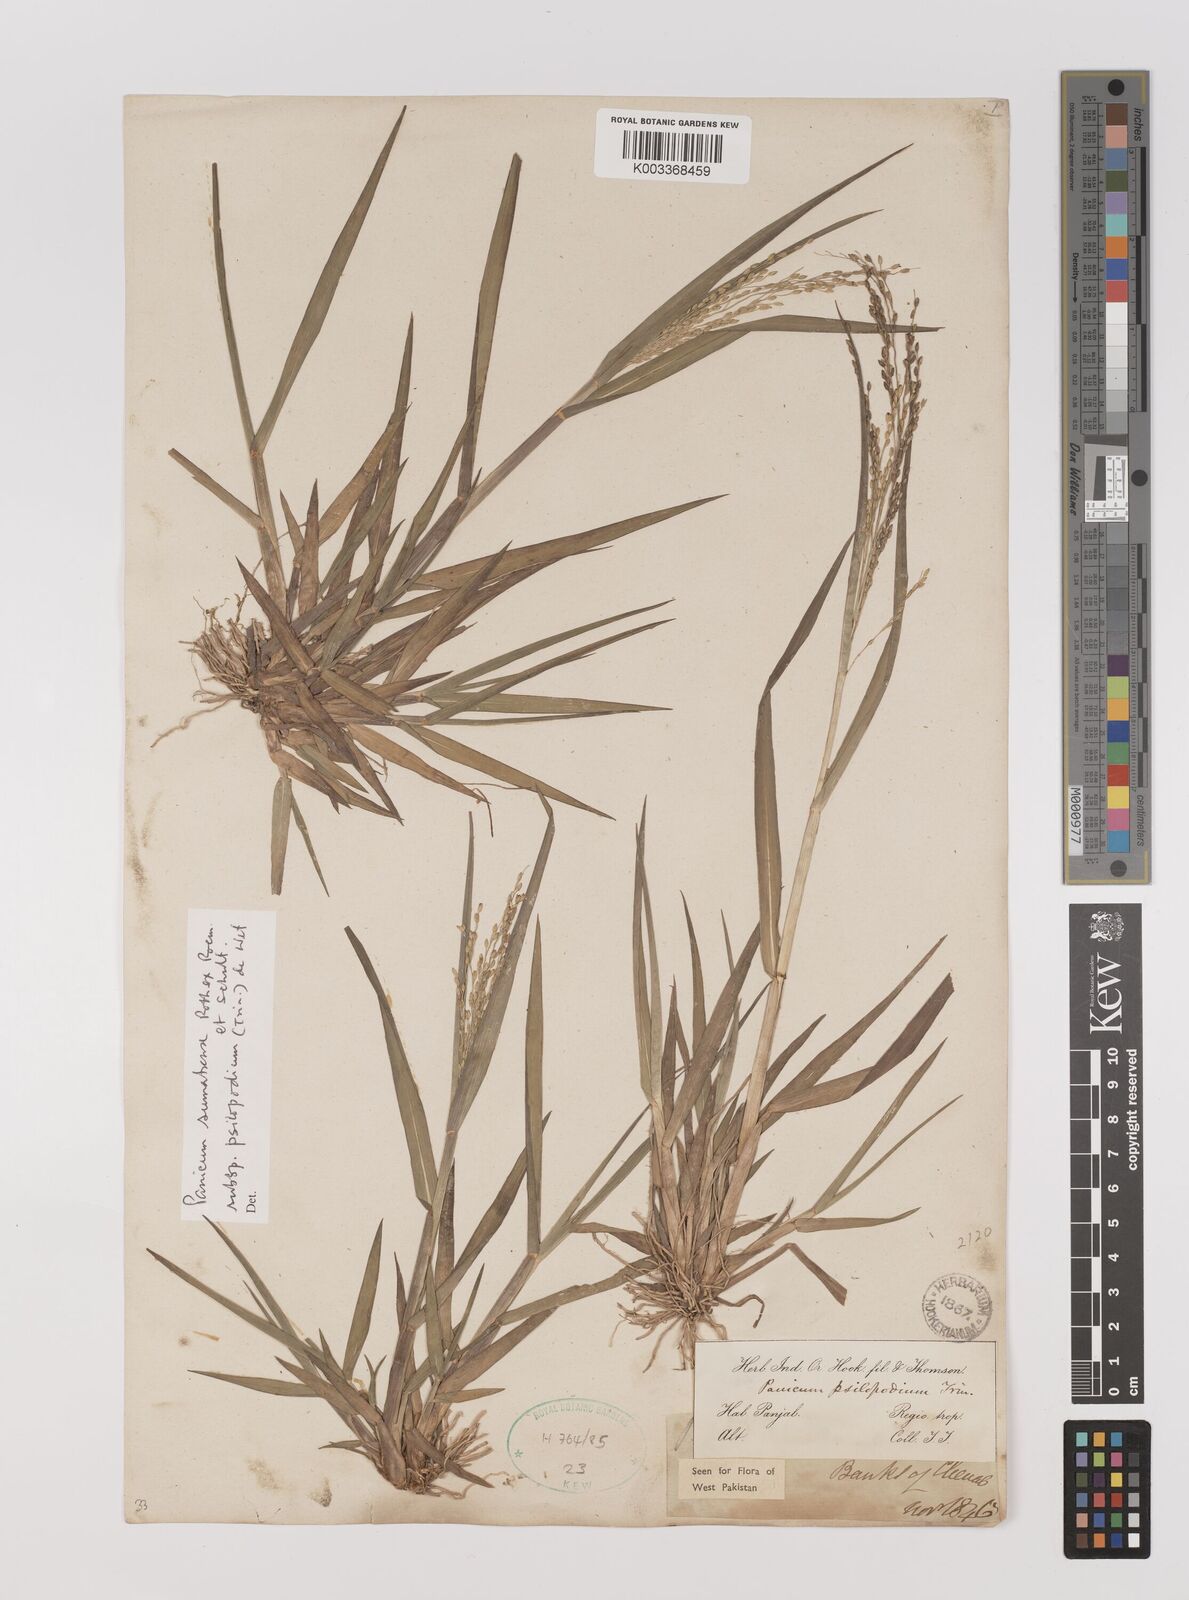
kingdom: Plantae
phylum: Tracheophyta
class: Liliopsida
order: Poales
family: Poaceae
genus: Panicum
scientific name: Panicum sumatrense
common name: Little millet
